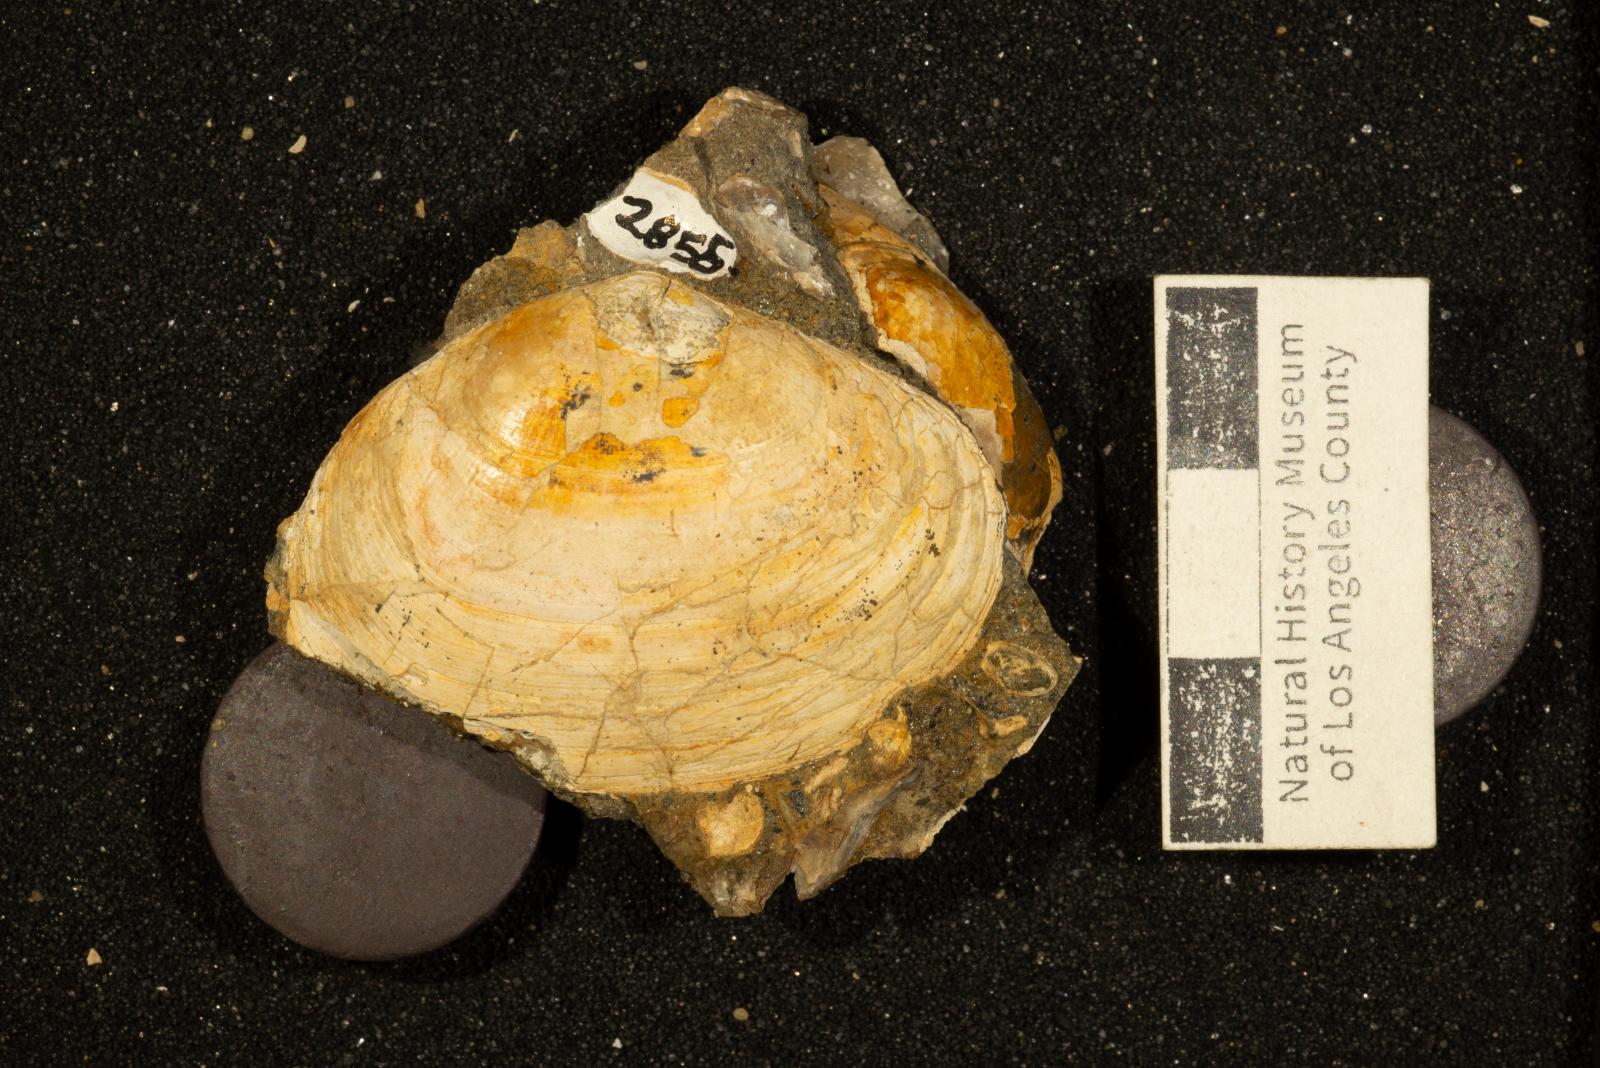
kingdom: Animalia
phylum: Mollusca
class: Bivalvia
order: Venerida
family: Veneridae
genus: Legumen
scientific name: Legumen ooides
